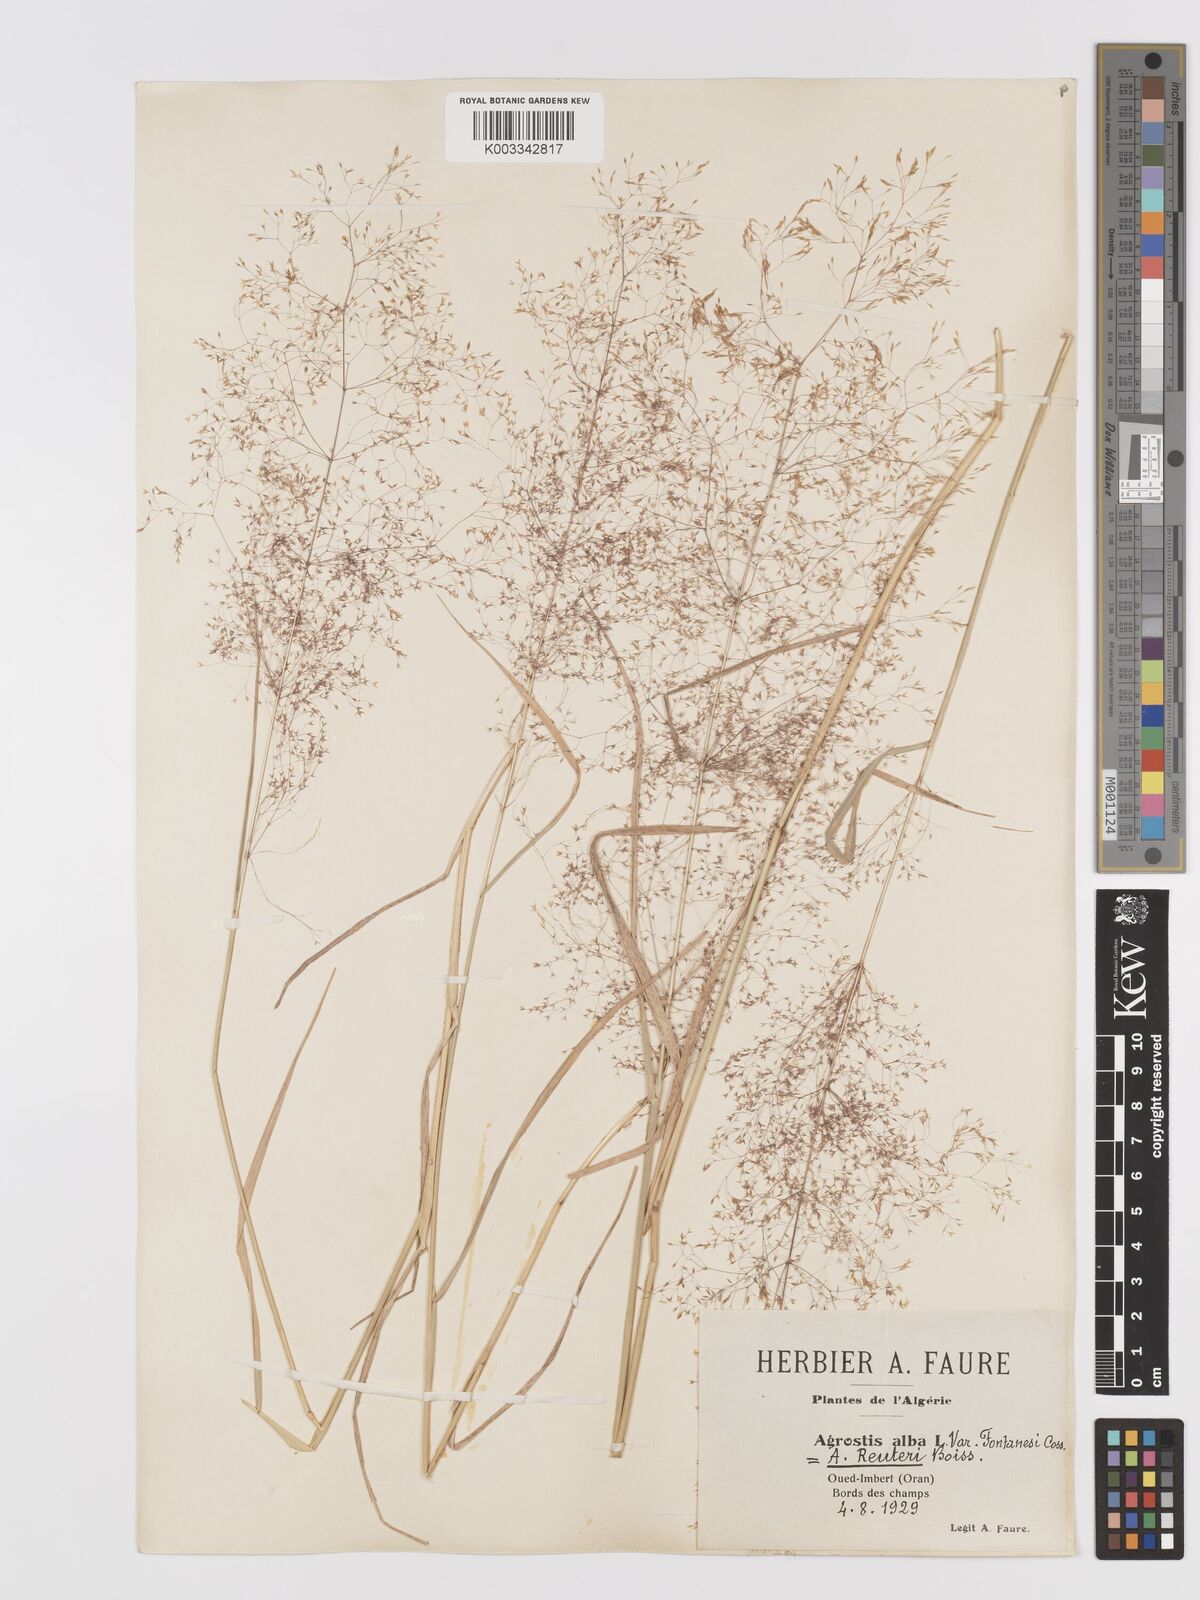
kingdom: Plantae
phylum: Tracheophyta
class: Liliopsida
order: Poales
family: Poaceae
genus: Agrostis
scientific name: Agrostis reuteri
